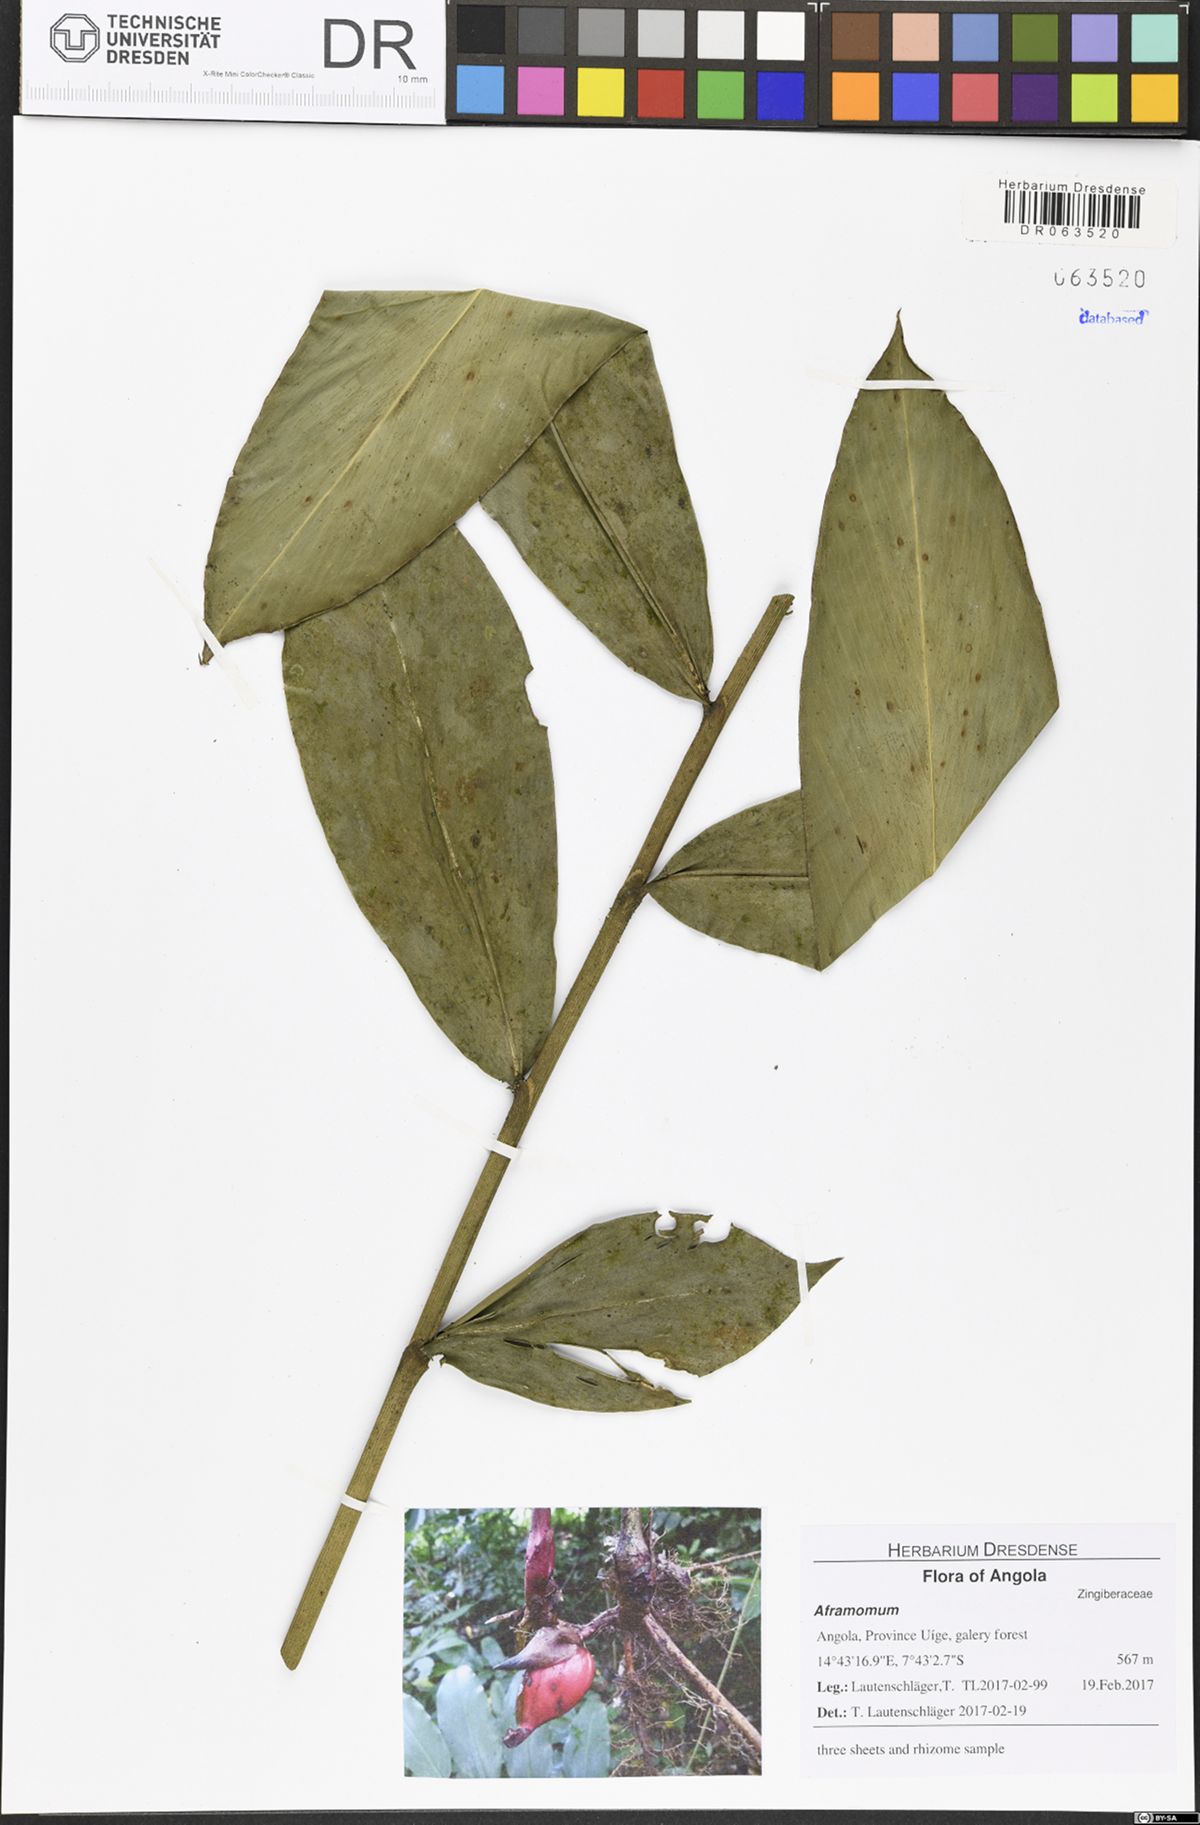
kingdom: Plantae
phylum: Tracheophyta
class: Liliopsida
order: Zingiberales
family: Zingiberaceae
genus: Aframomum
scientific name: Aframomum parvulum
